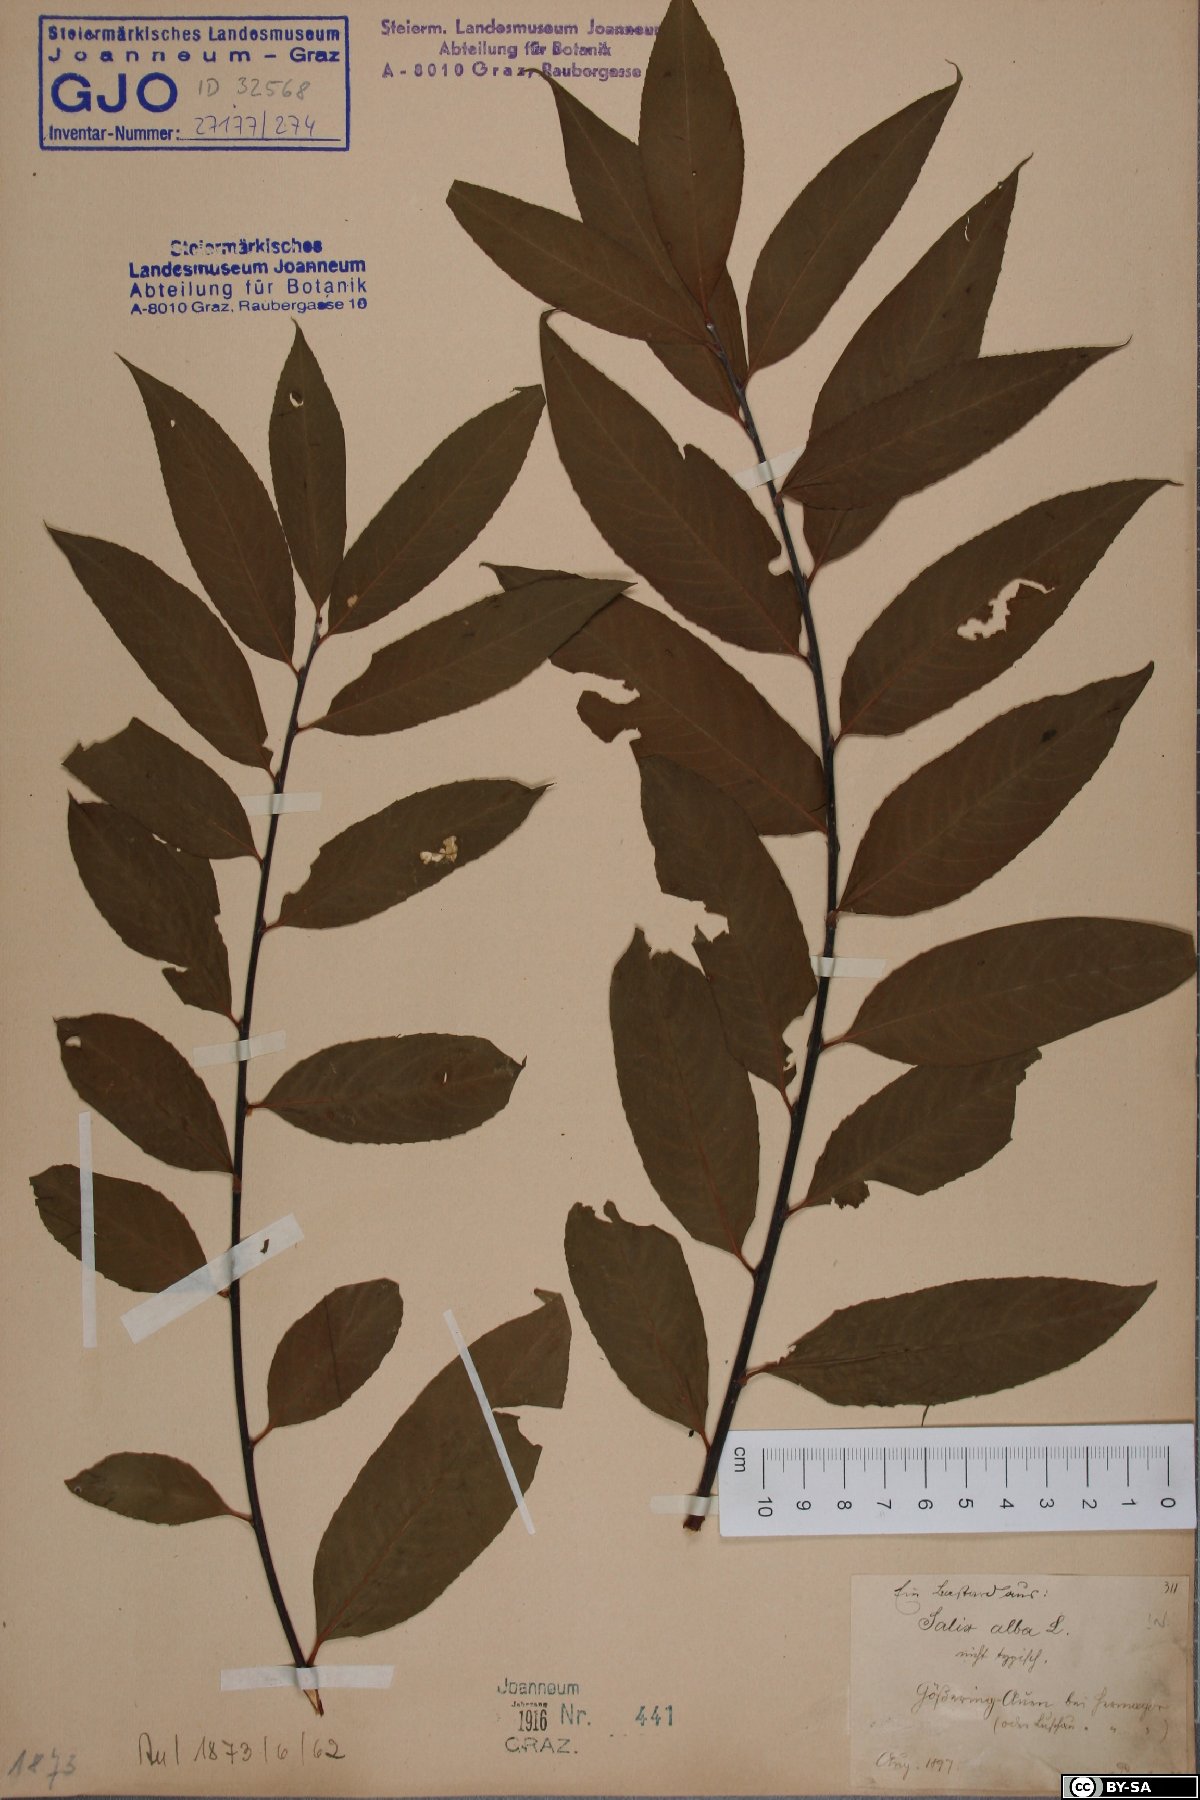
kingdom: Plantae
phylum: Tracheophyta
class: Magnoliopsida
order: Malpighiales
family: Salicaceae
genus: Salix
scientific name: Salix alba
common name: White willow
